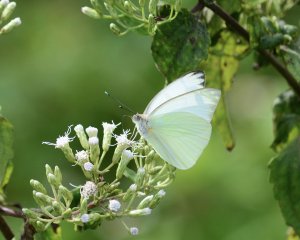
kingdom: Animalia
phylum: Arthropoda
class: Insecta
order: Lepidoptera
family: Pieridae
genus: Ascia
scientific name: Ascia monuste
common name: Great Southern White
